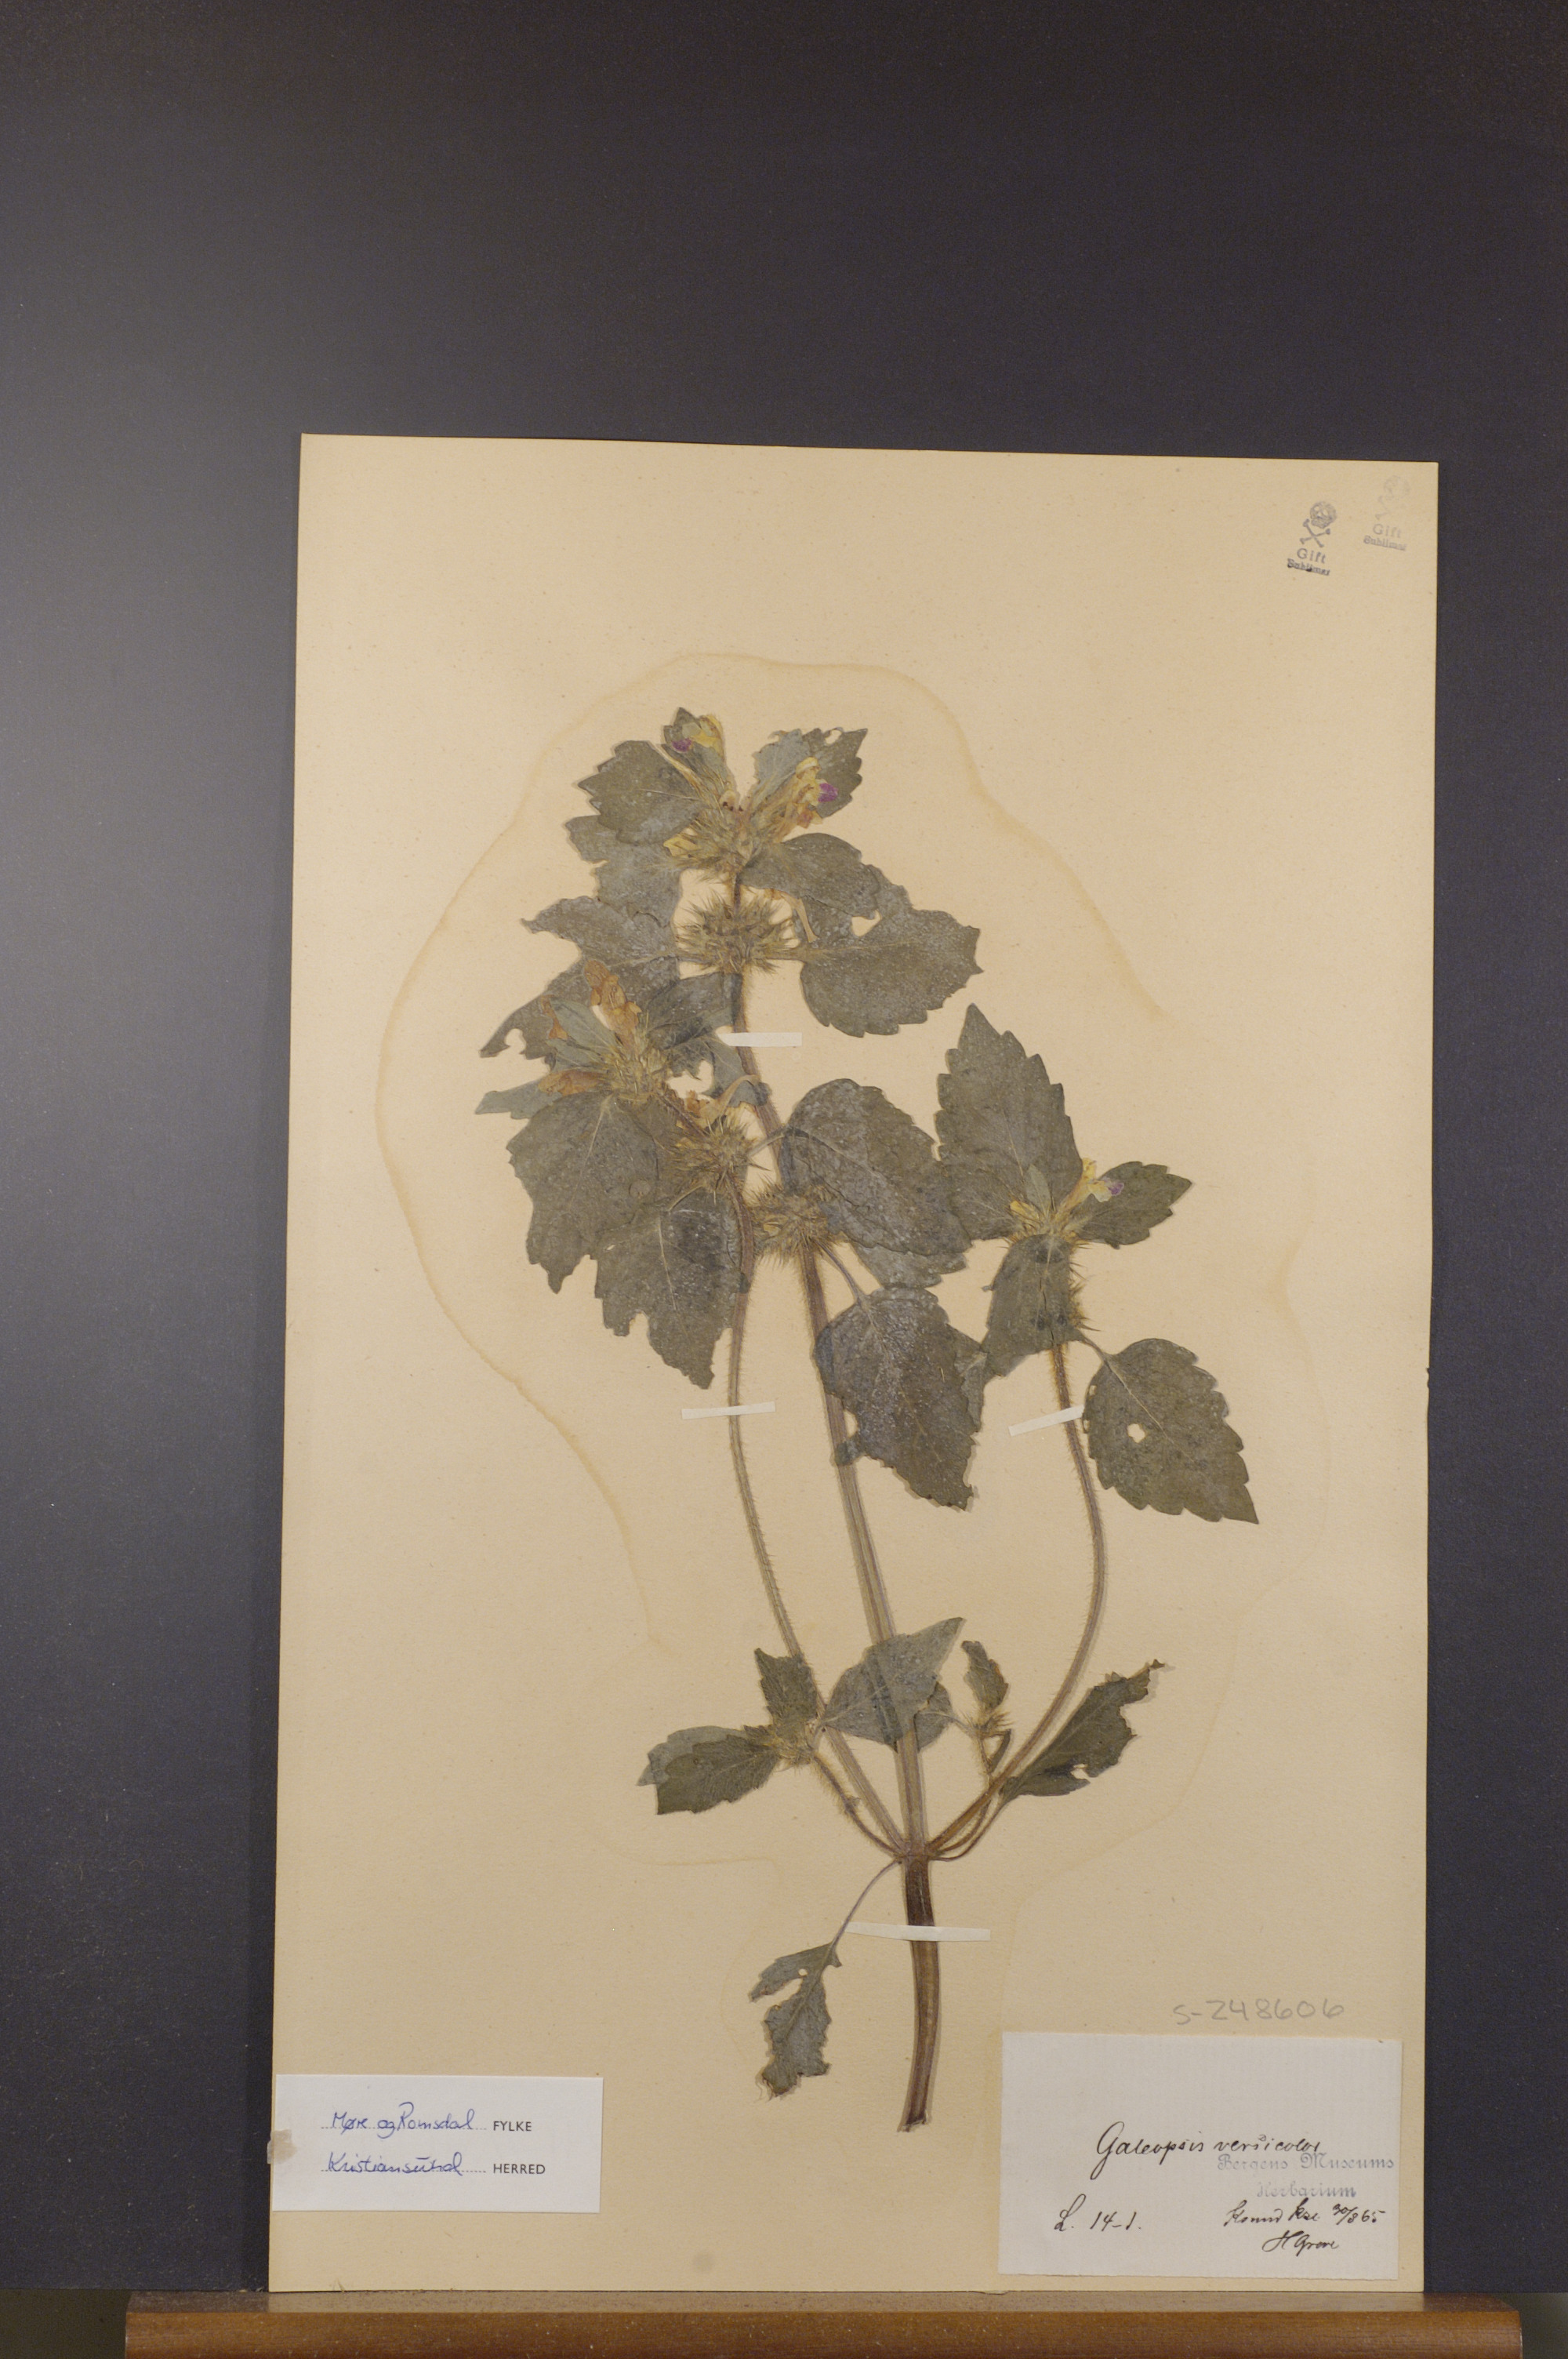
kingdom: Plantae
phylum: Tracheophyta
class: Magnoliopsida
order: Lamiales
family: Lamiaceae
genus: Galeopsis
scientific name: Galeopsis speciosa
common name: Large-flowered hemp-nettle
